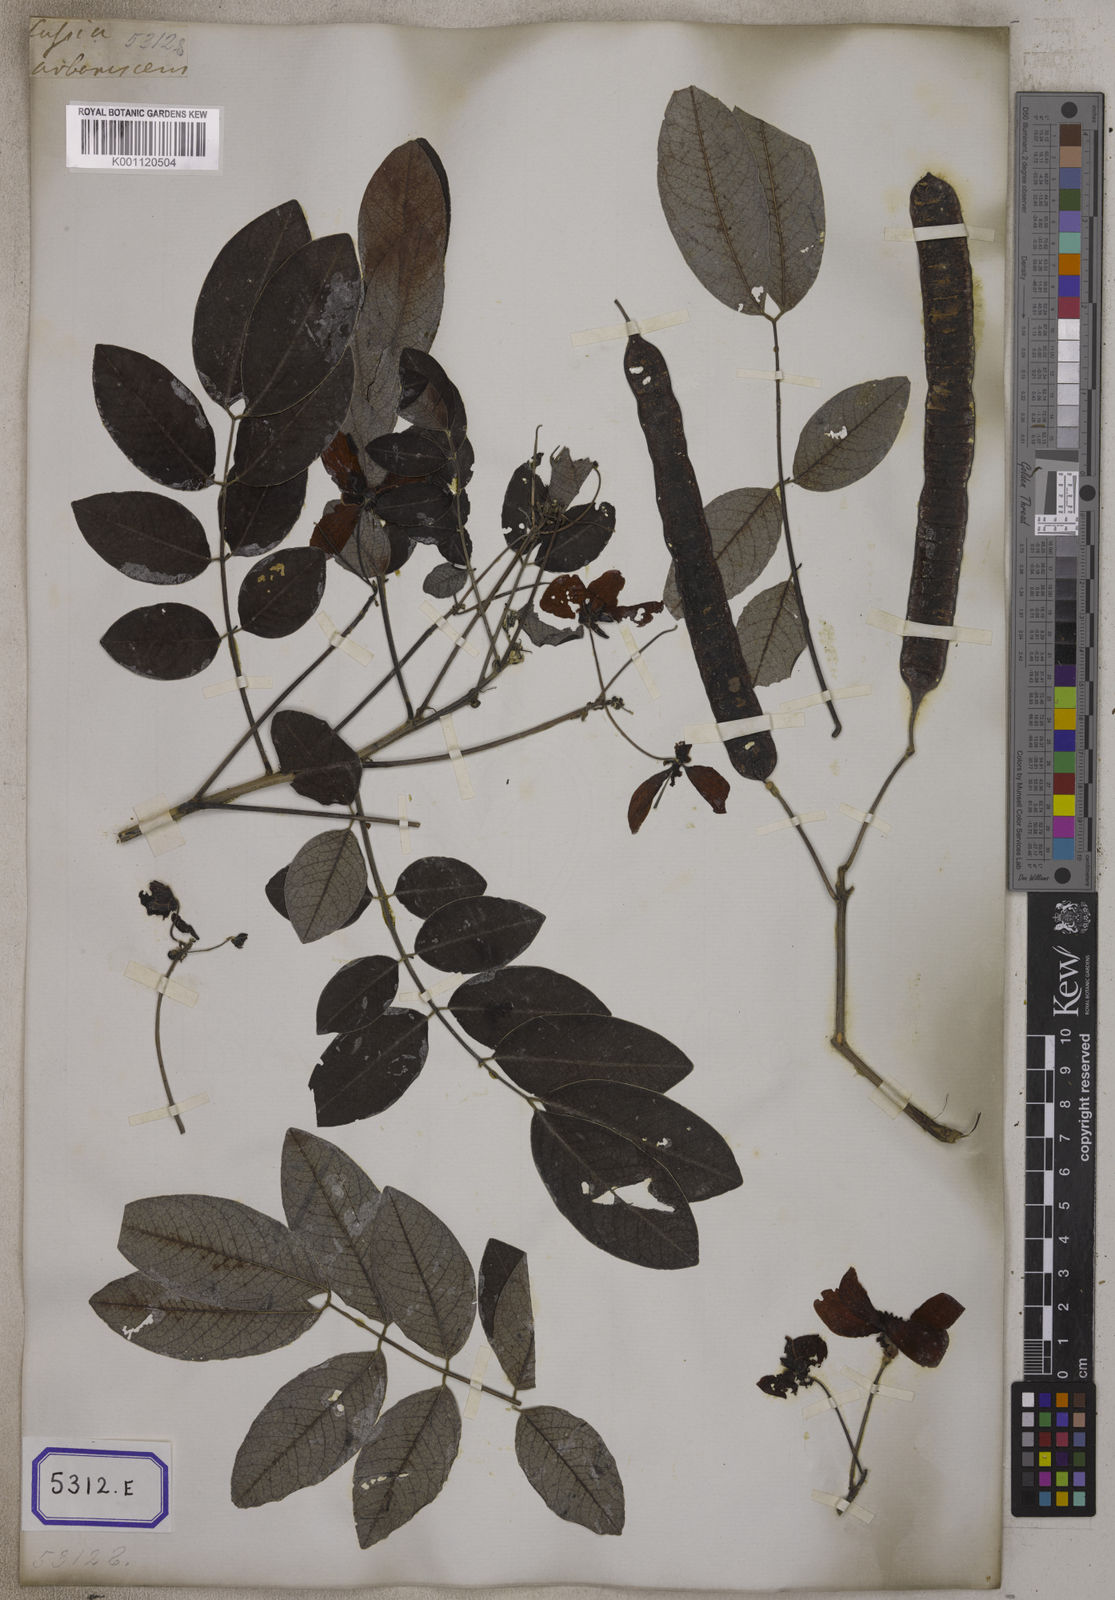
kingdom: Plantae
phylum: Tracheophyta
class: Magnoliopsida
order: Fabales
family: Fabaceae
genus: Senna
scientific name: Senna sulfurea
